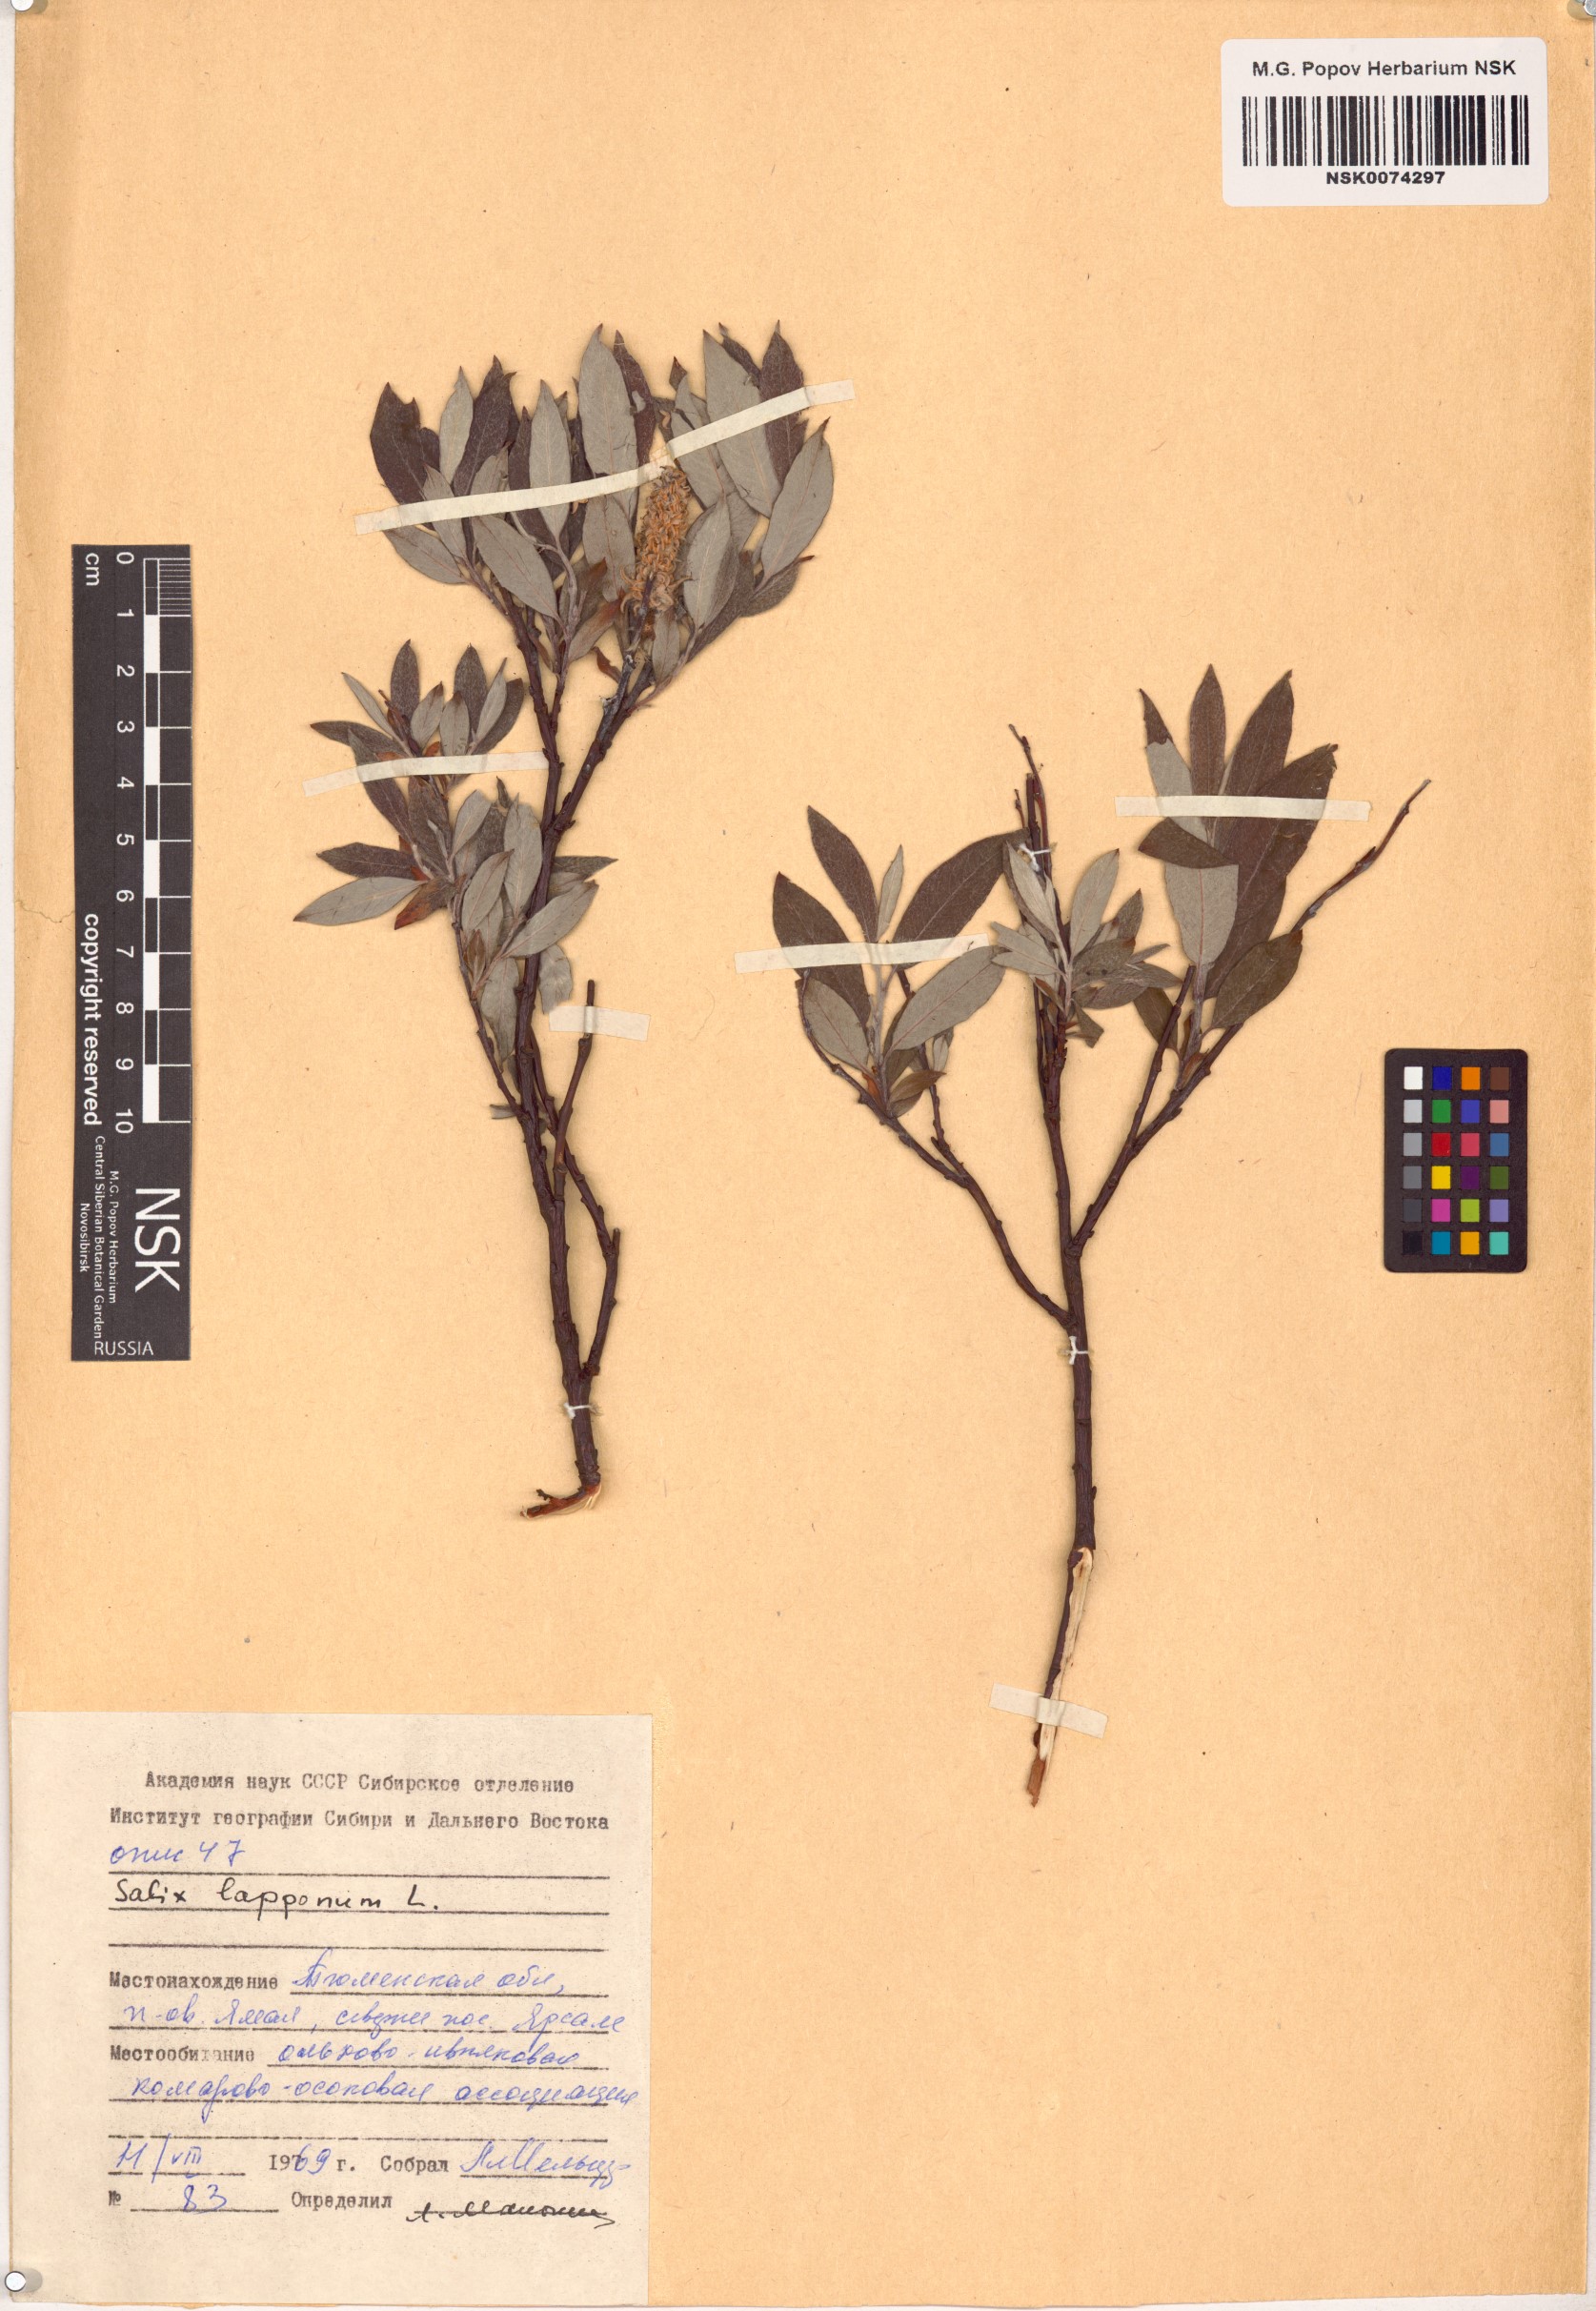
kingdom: Plantae
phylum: Tracheophyta
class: Magnoliopsida
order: Malpighiales
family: Salicaceae
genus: Salix
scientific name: Salix lapponum
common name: Downy willow
